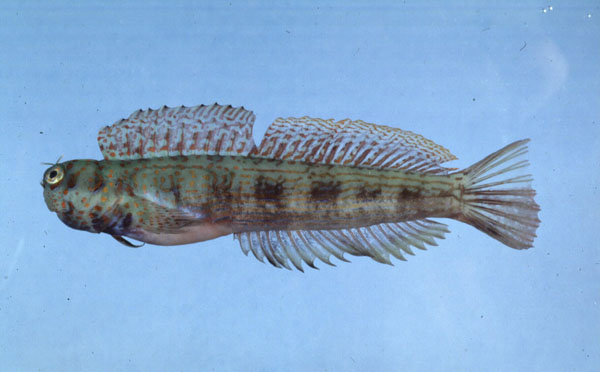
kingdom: Animalia
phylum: Chordata
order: Perciformes
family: Blenniidae
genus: Istiblennius
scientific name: Istiblennius
